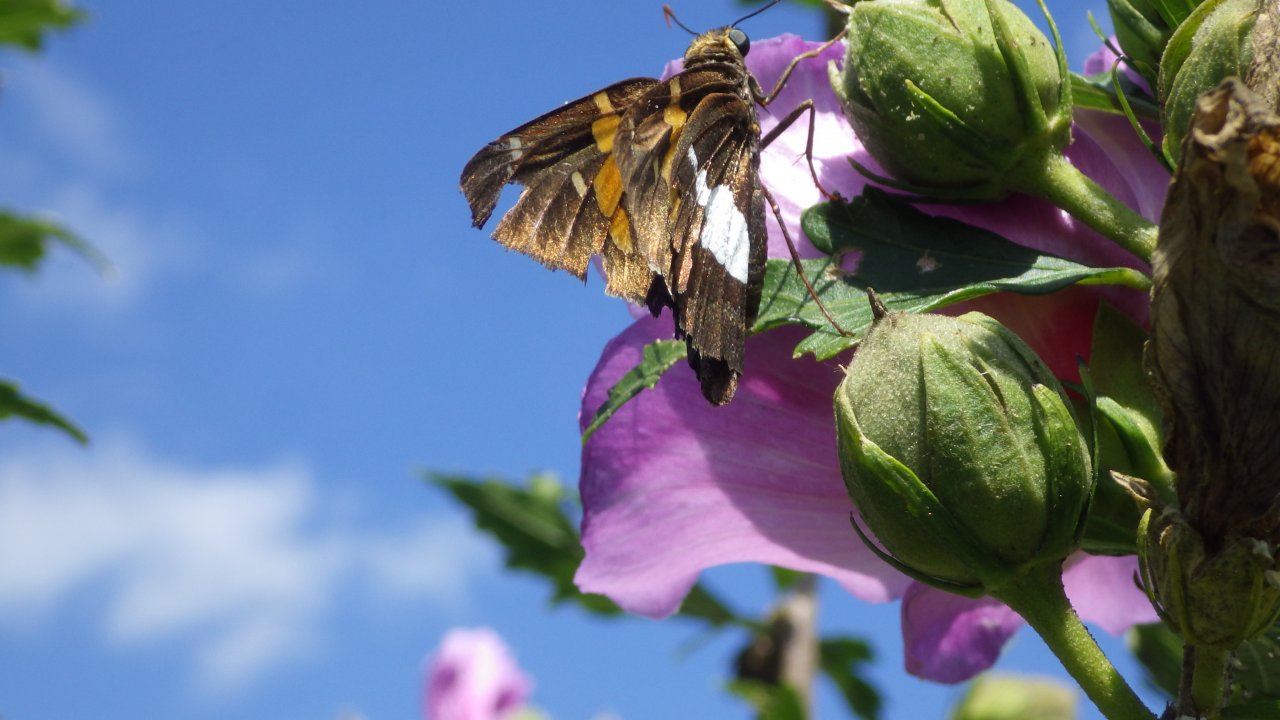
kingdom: Animalia
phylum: Arthropoda
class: Insecta
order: Lepidoptera
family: Hesperiidae
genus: Epargyreus
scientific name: Epargyreus clarus
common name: Silver-spotted Skipper
